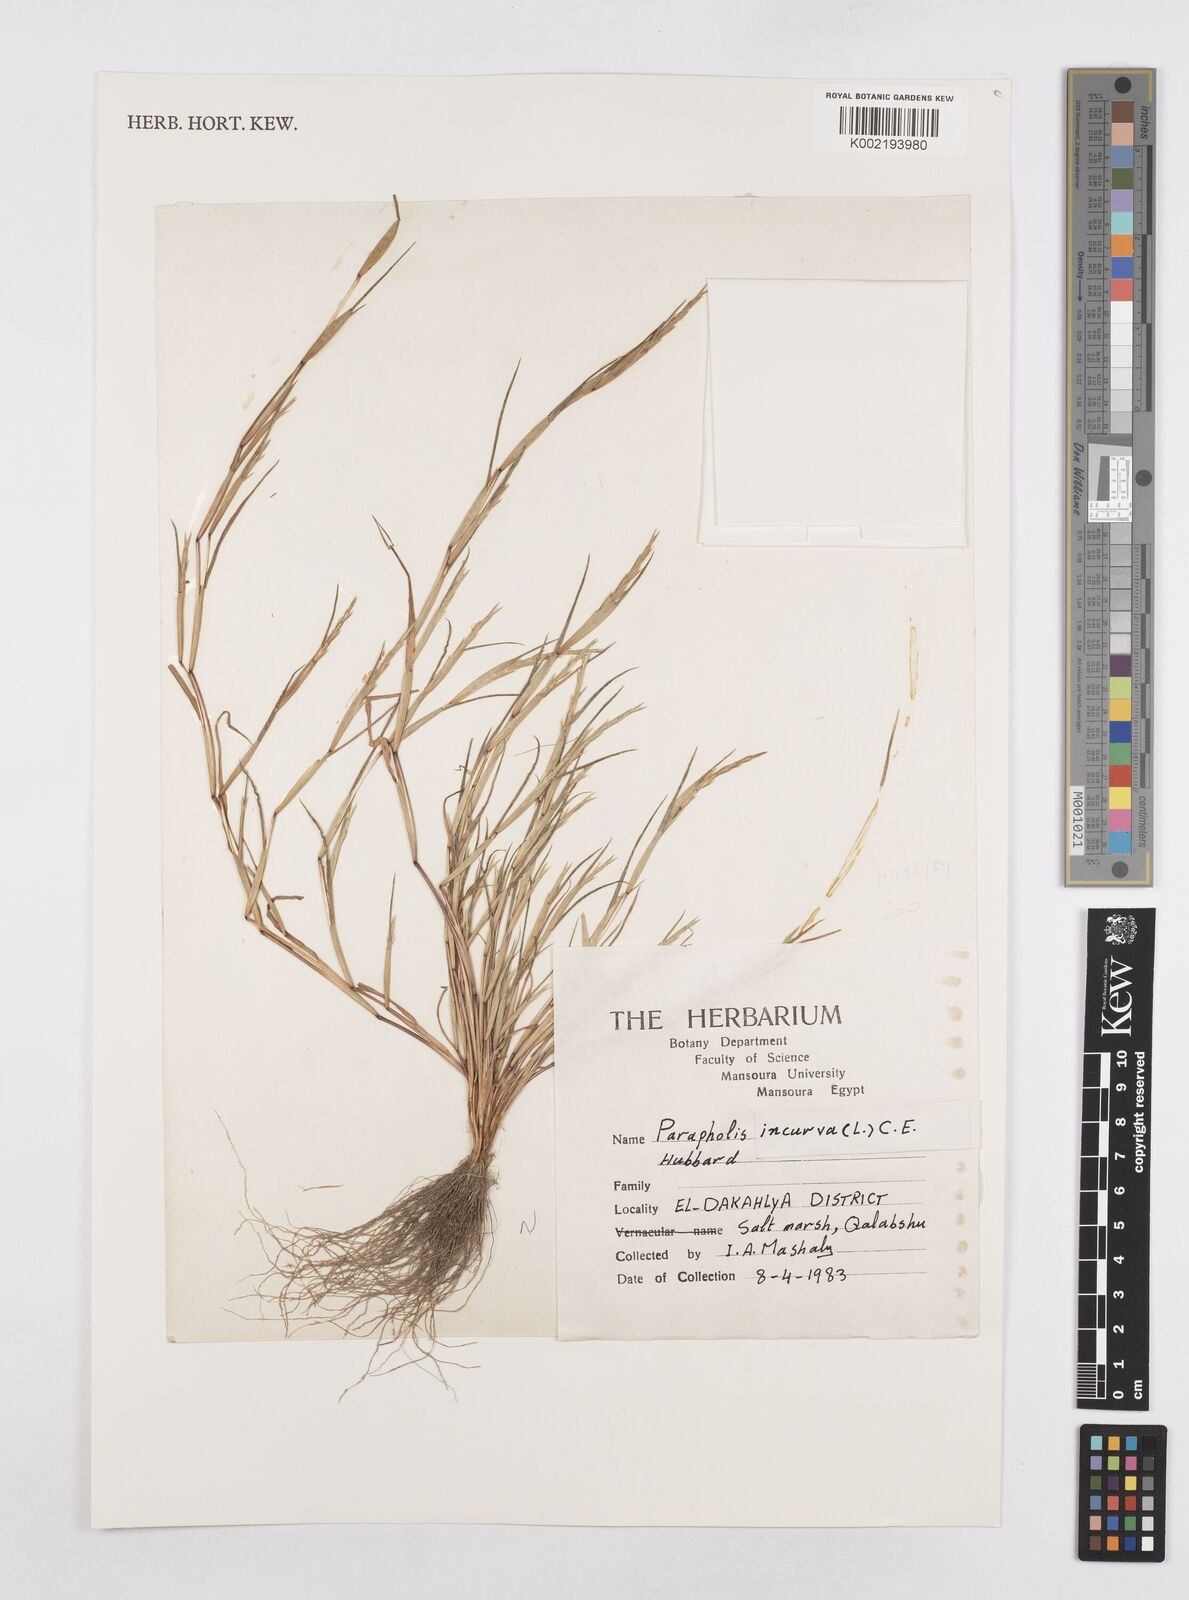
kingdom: Plantae
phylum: Tracheophyta
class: Liliopsida
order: Poales
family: Poaceae
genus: Parapholis
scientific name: Parapholis incurva
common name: Curved sicklegrass
